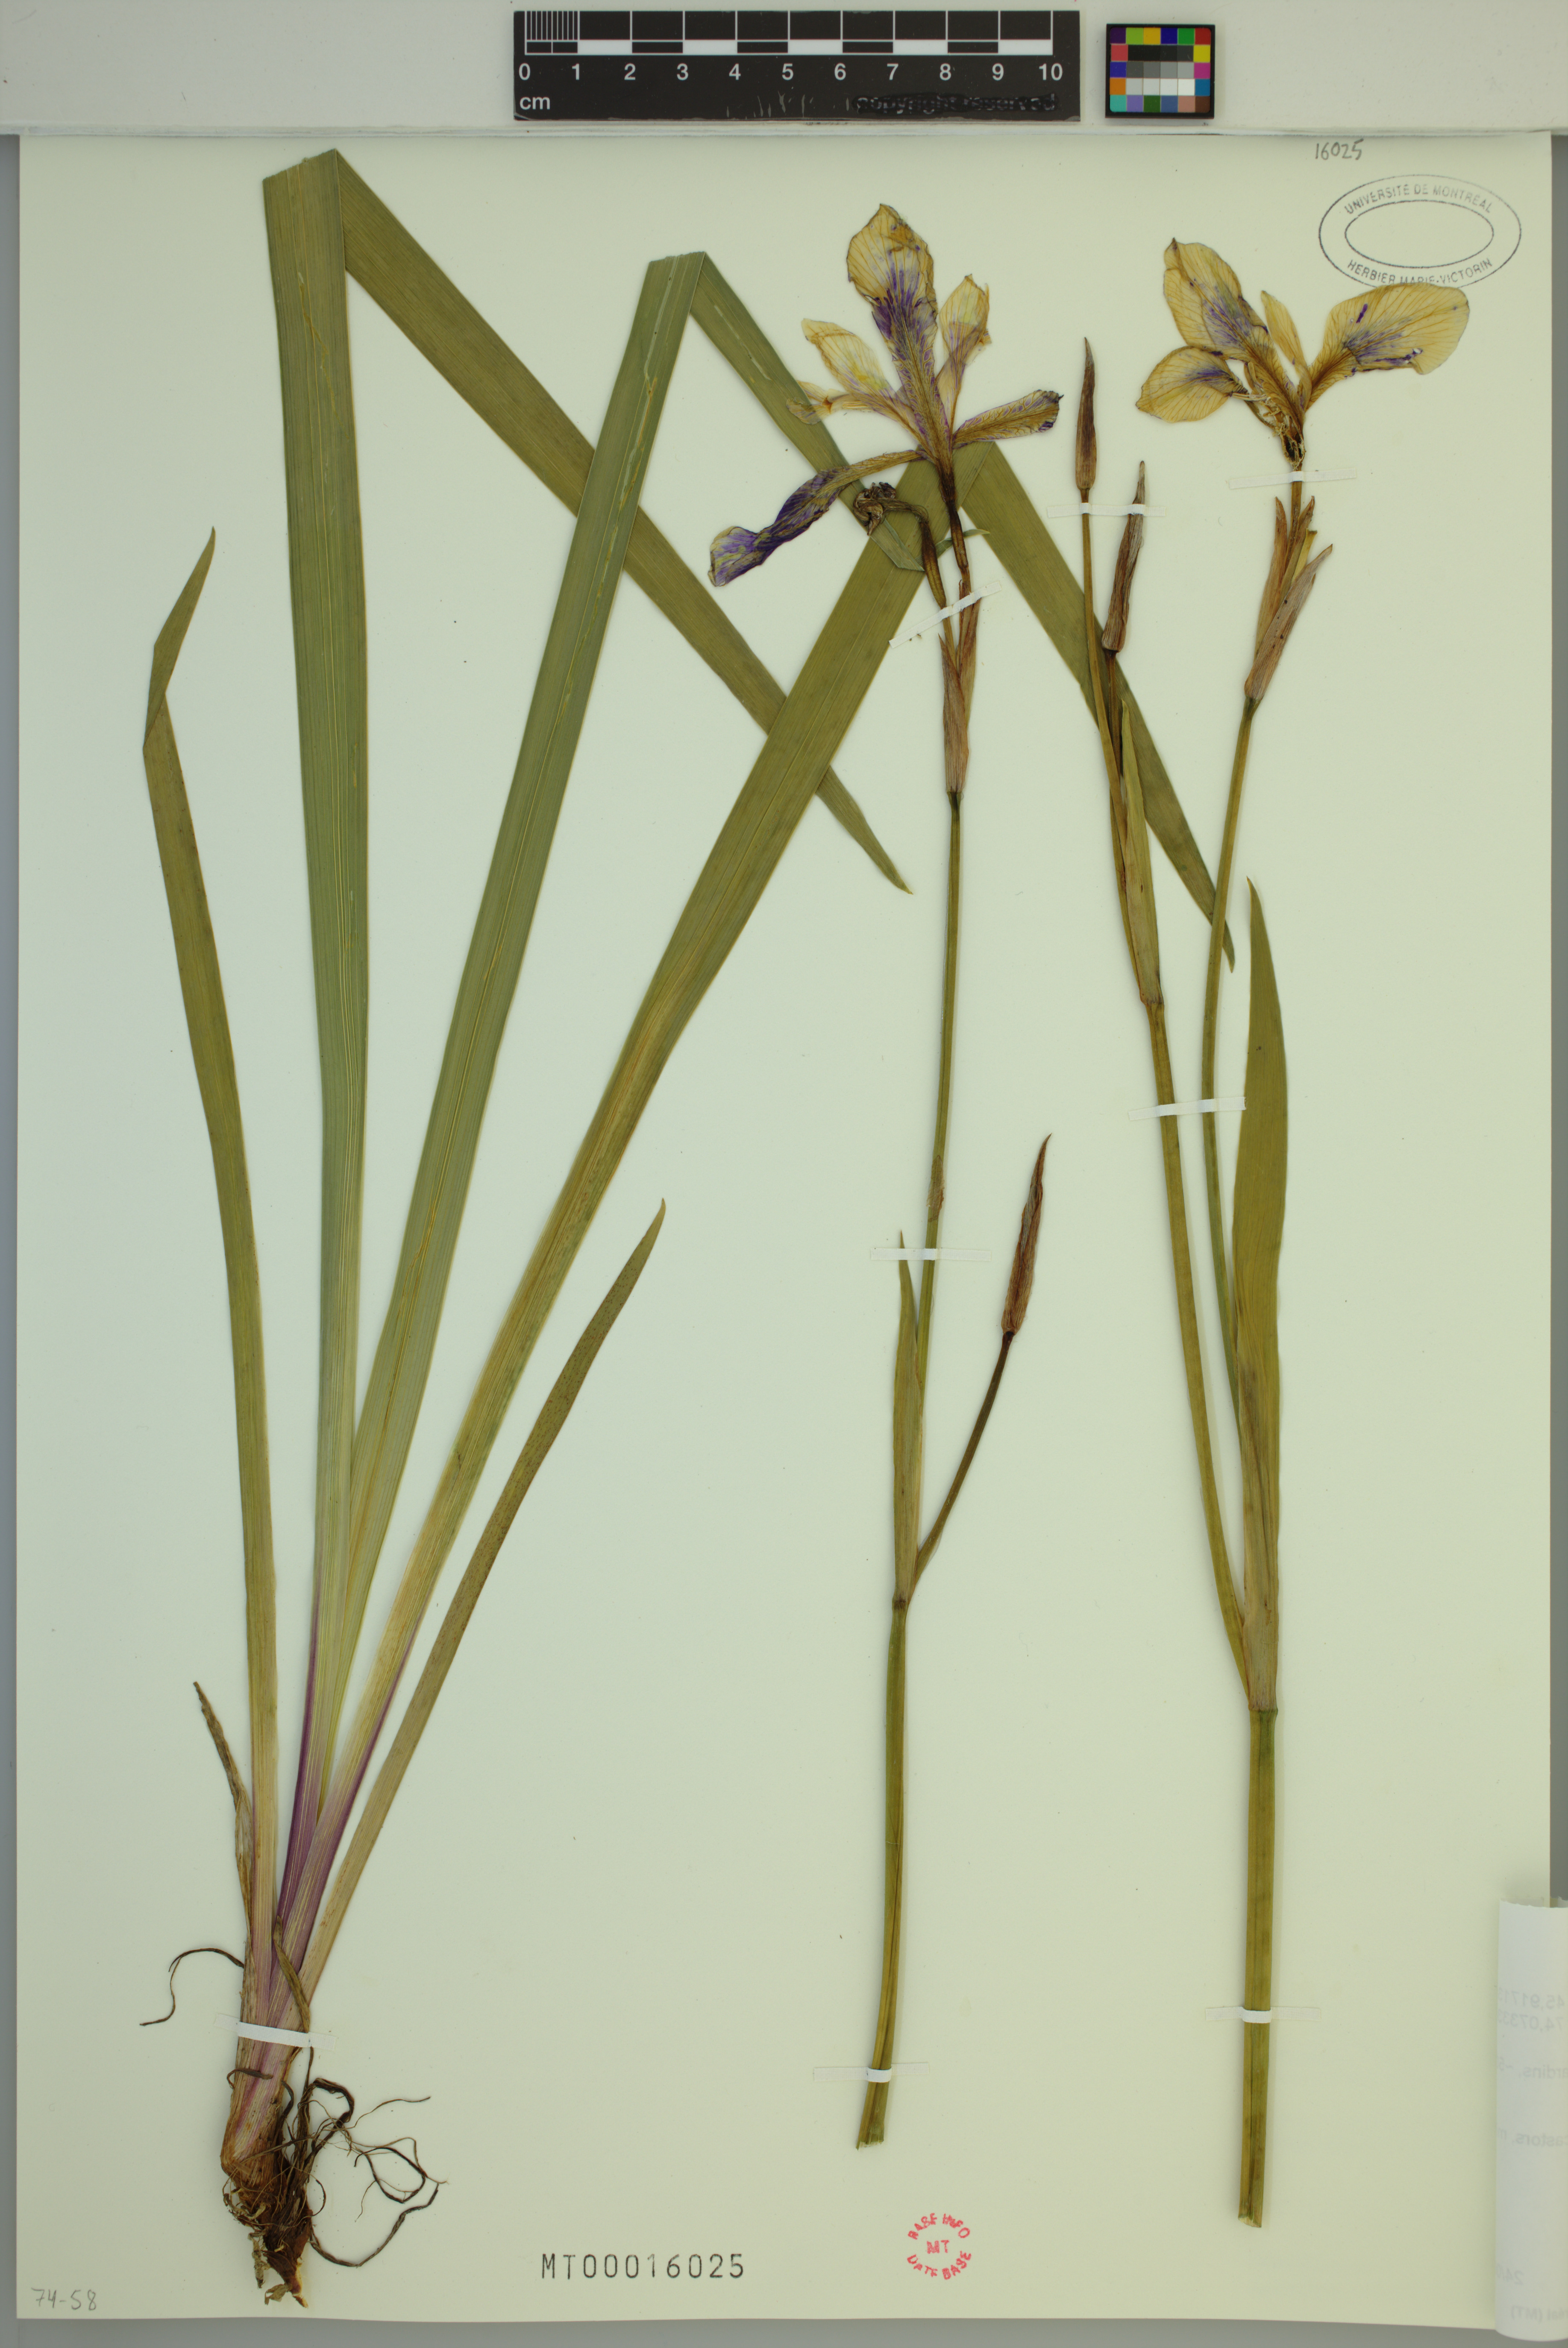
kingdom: Plantae
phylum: Tracheophyta
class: Liliopsida
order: Asparagales
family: Iridaceae
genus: Iris
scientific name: Iris versicolor
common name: Purple iris
